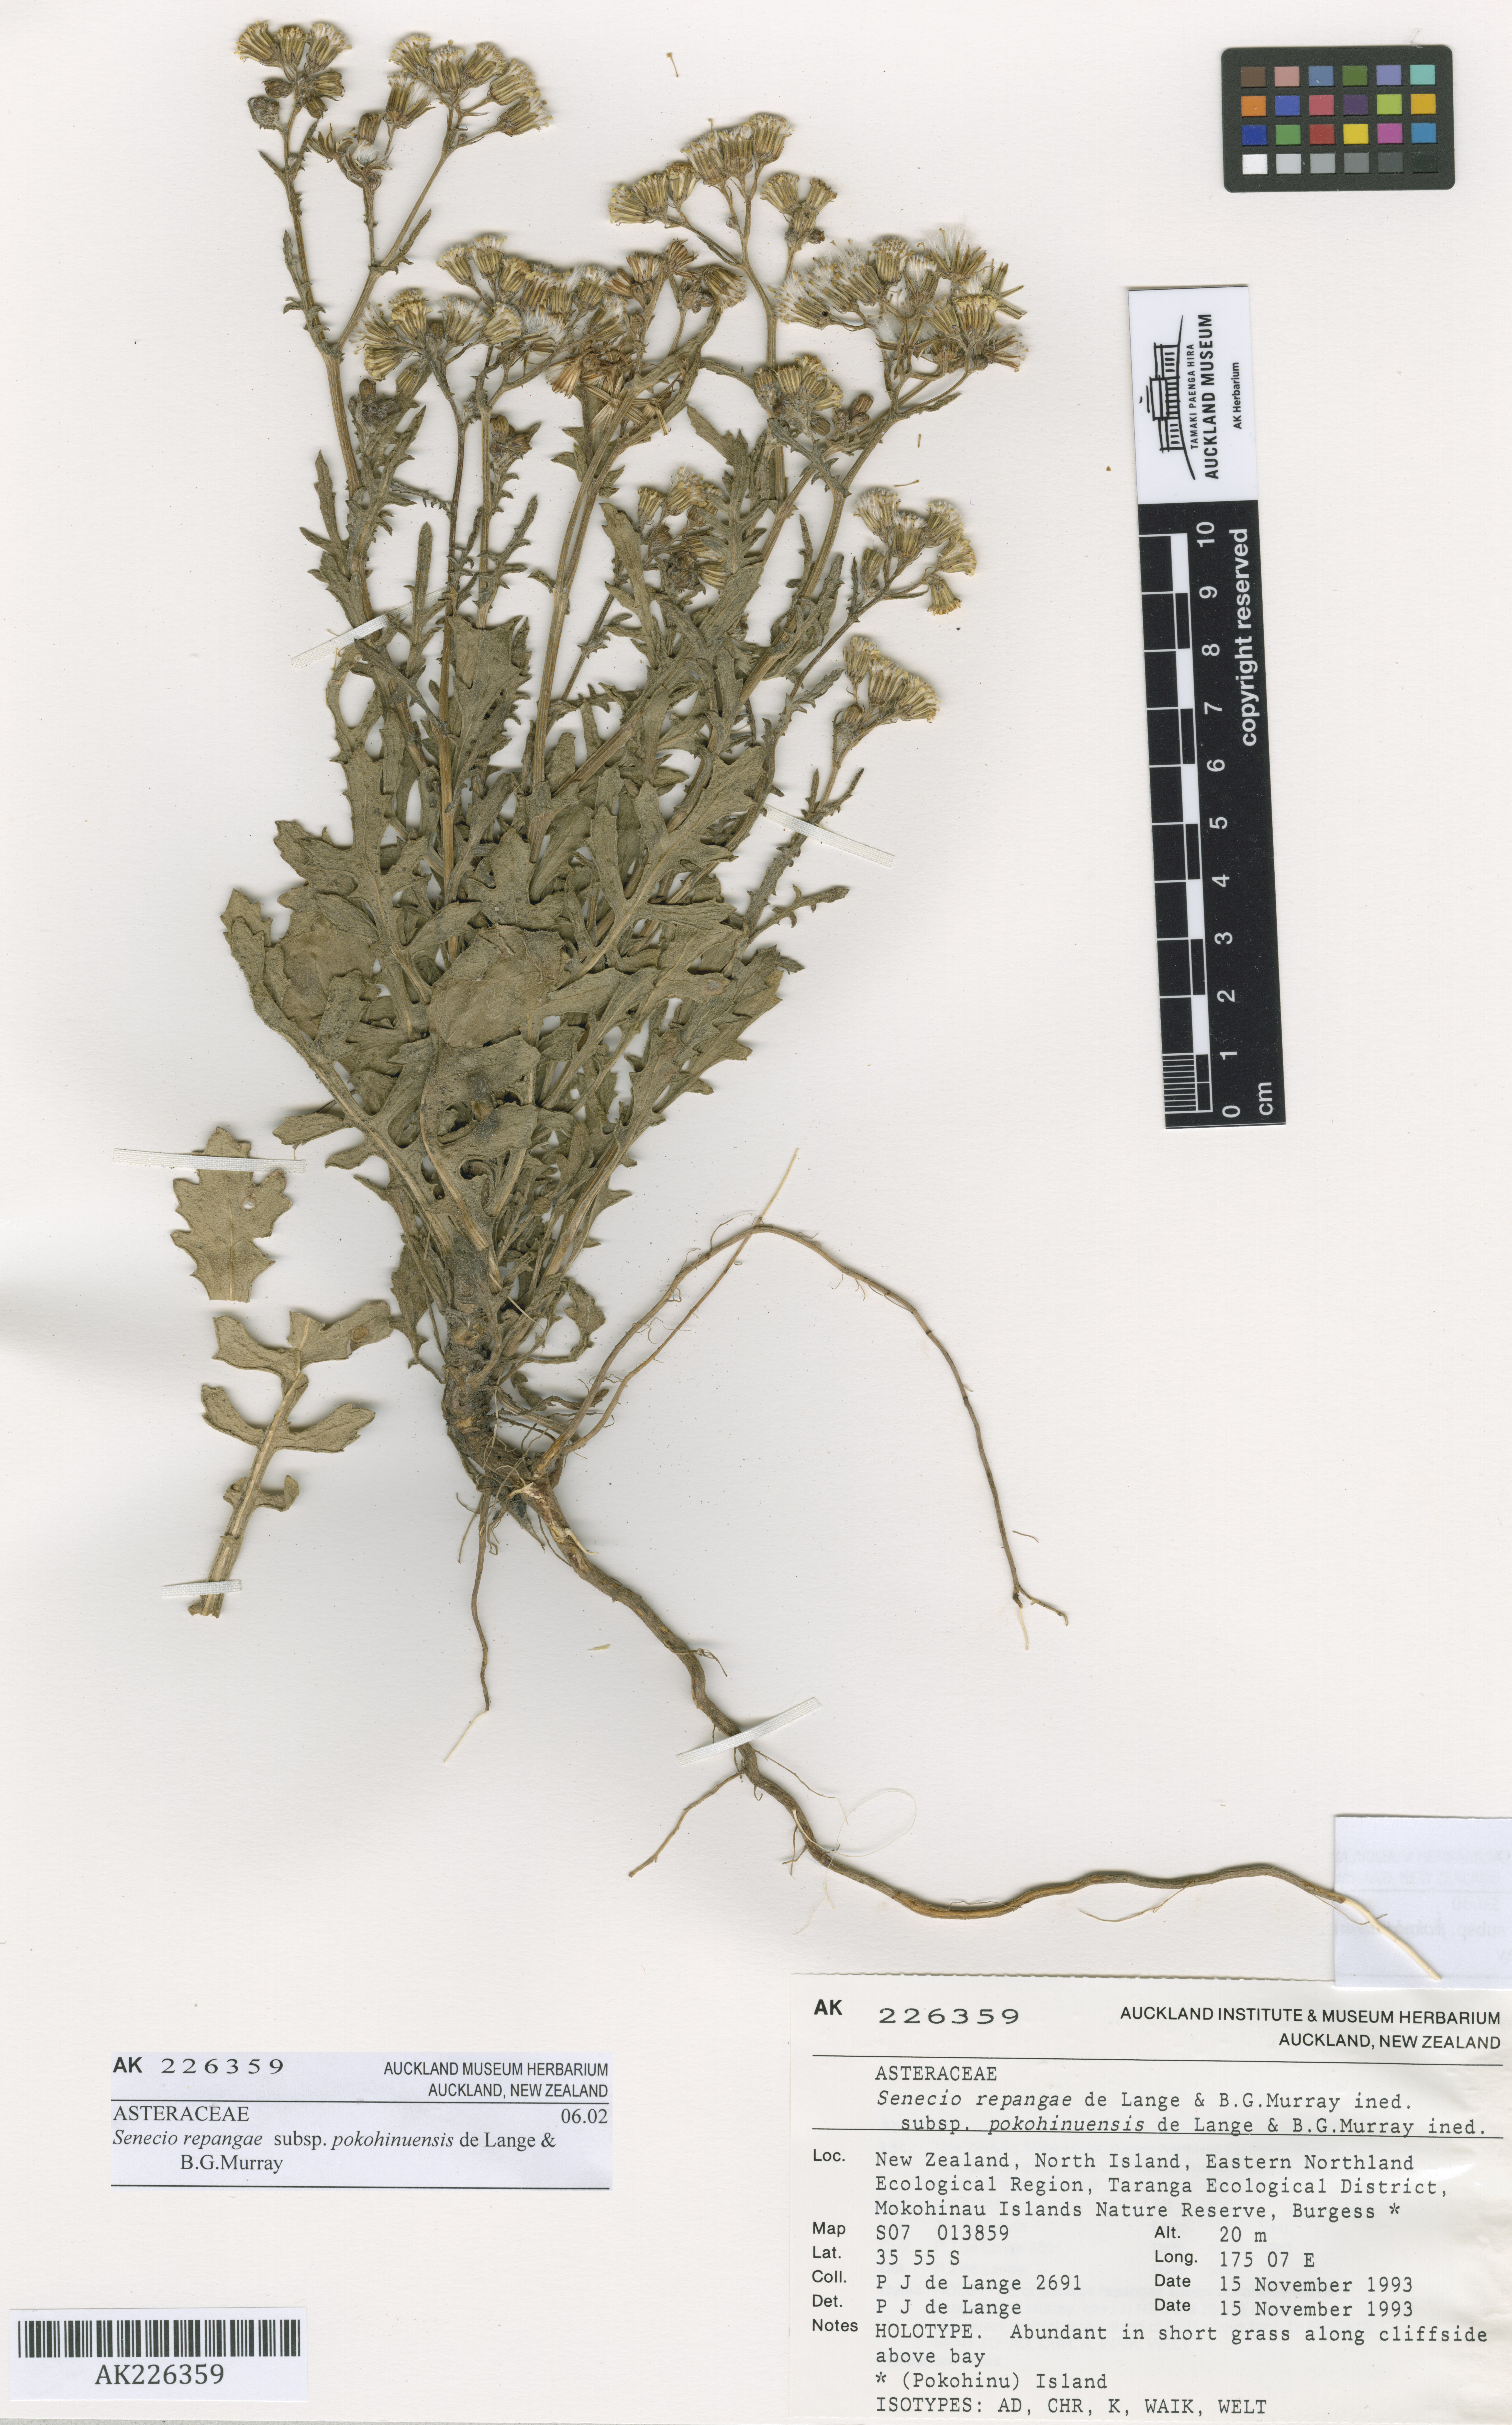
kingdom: Plantae
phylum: Tracheophyta
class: Magnoliopsida
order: Asterales
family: Asteraceae
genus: Senecio
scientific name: Senecio pokohinuensis
